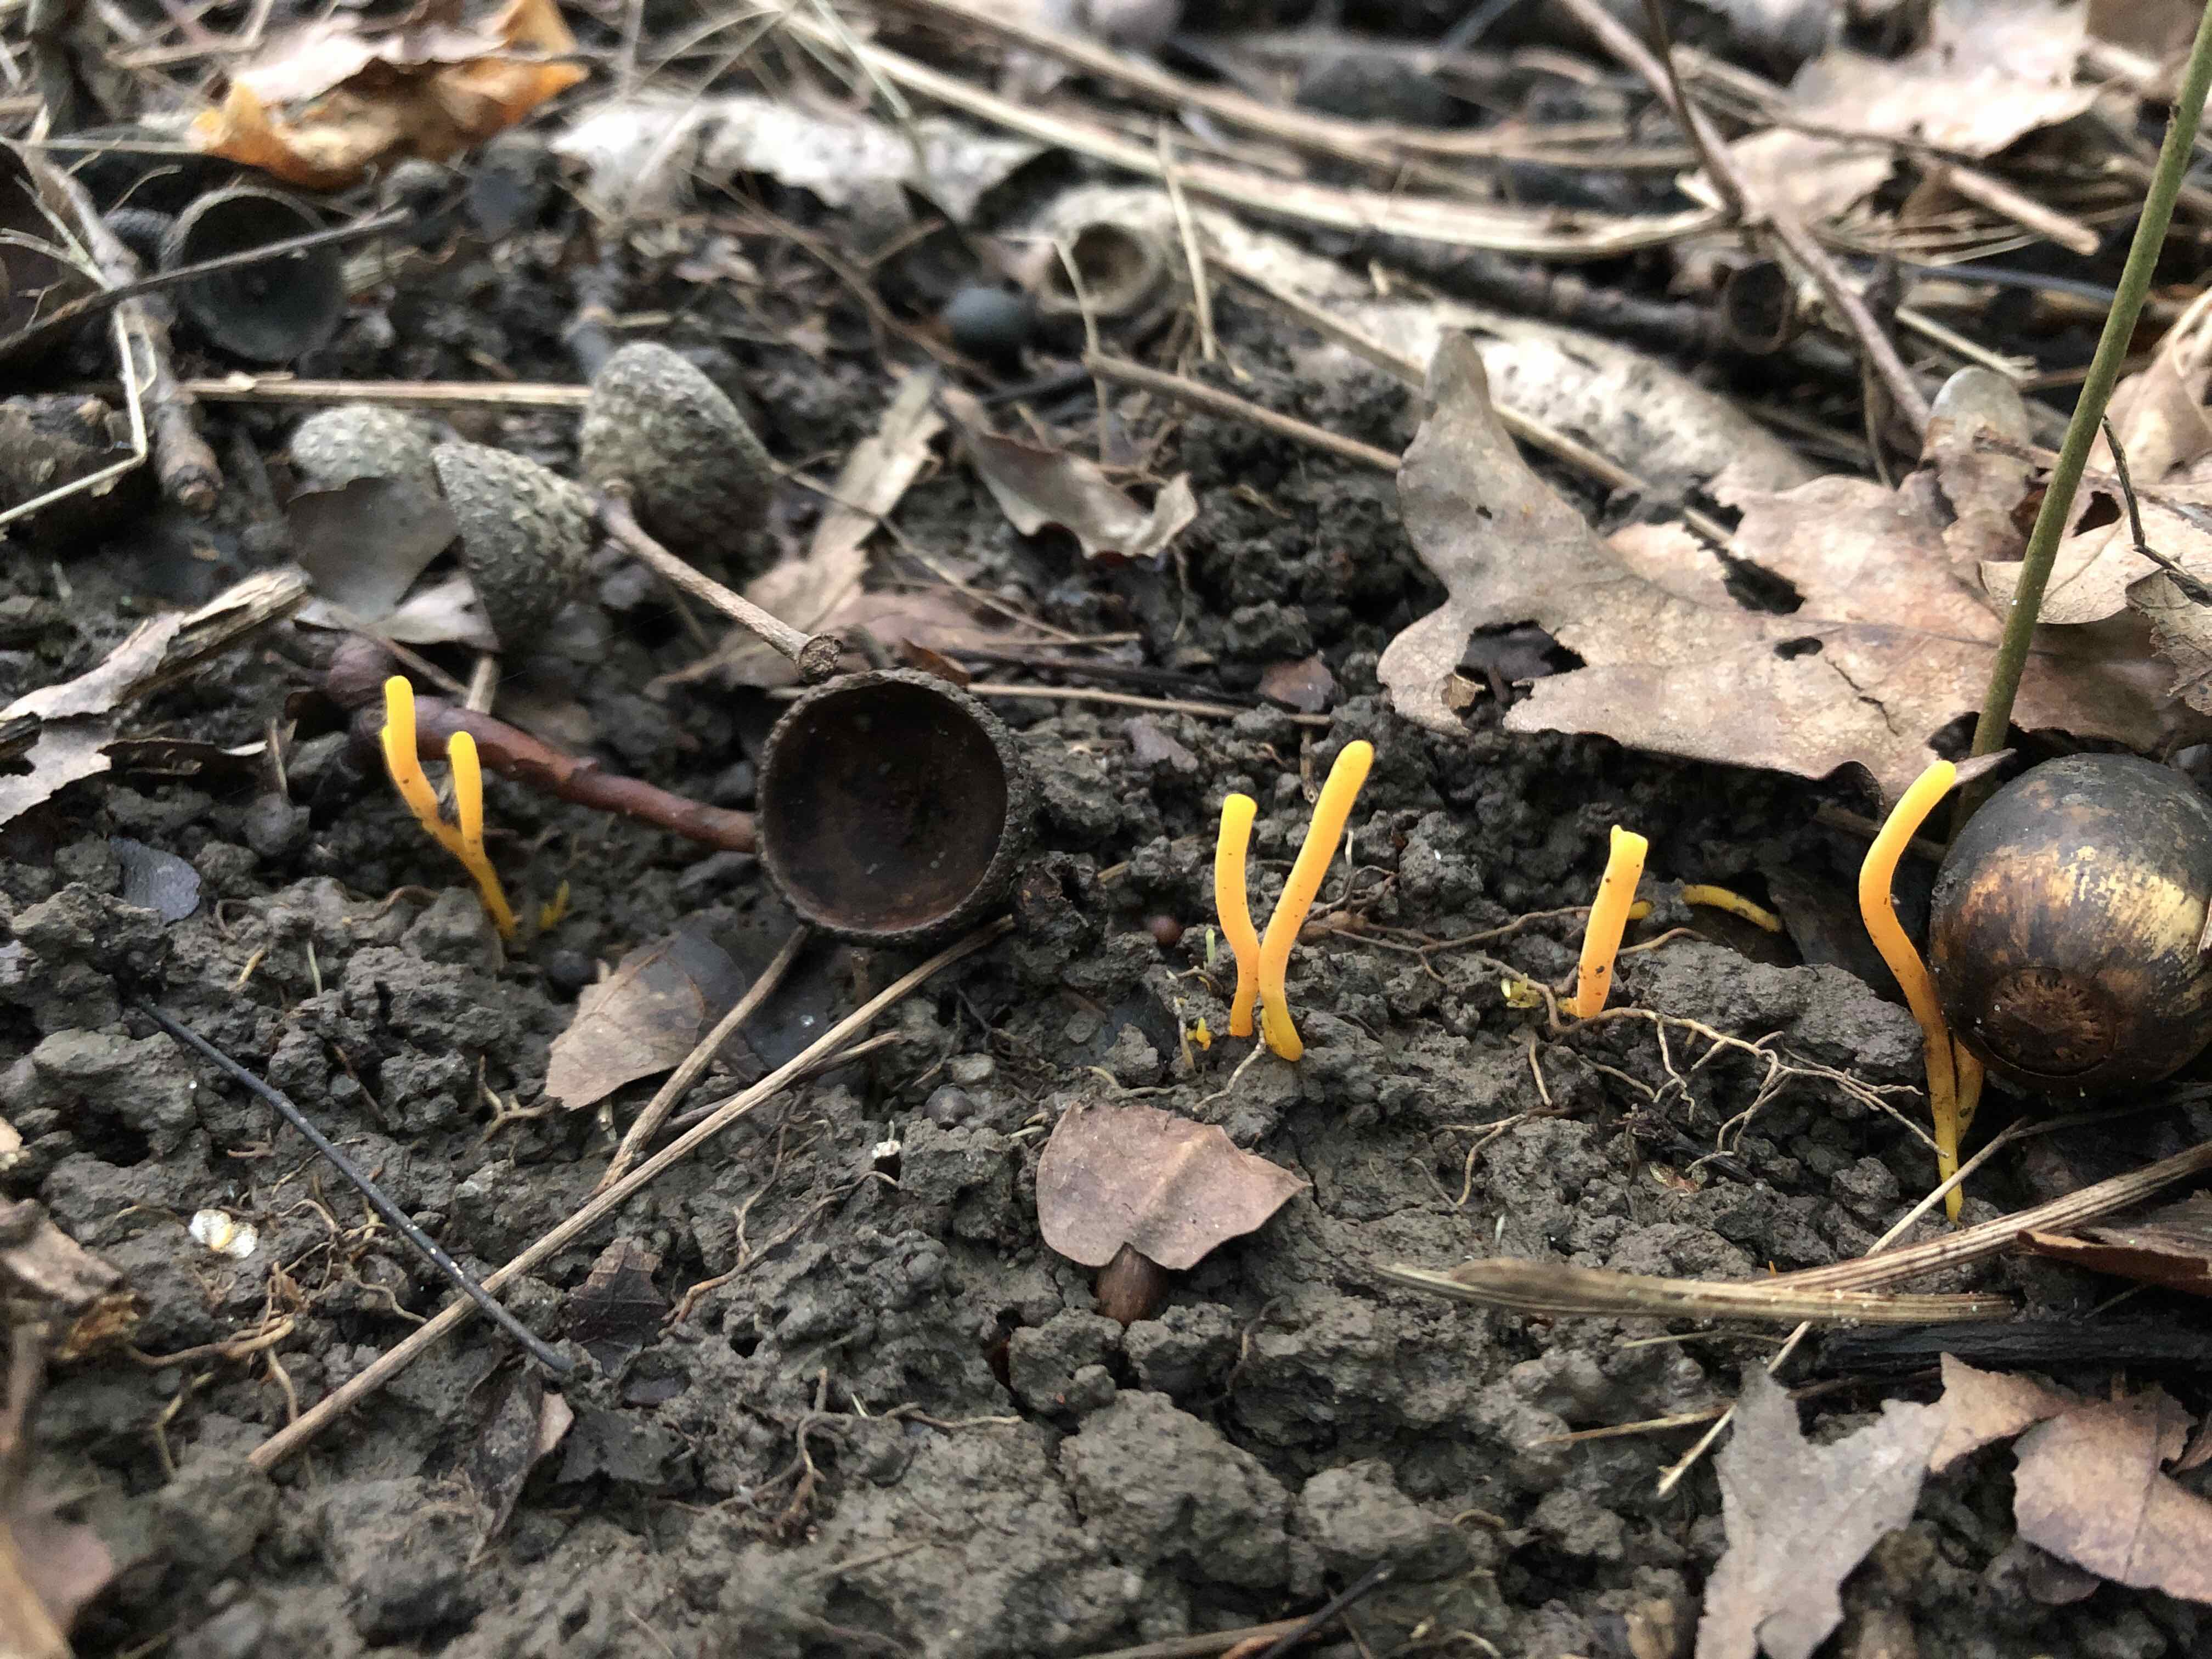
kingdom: Fungi
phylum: Basidiomycota
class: Agaricomycetes
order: Agaricales
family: Clavariaceae
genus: Clavulinopsis
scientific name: Clavulinopsis laeticolor
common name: flamme-køllesvamp
